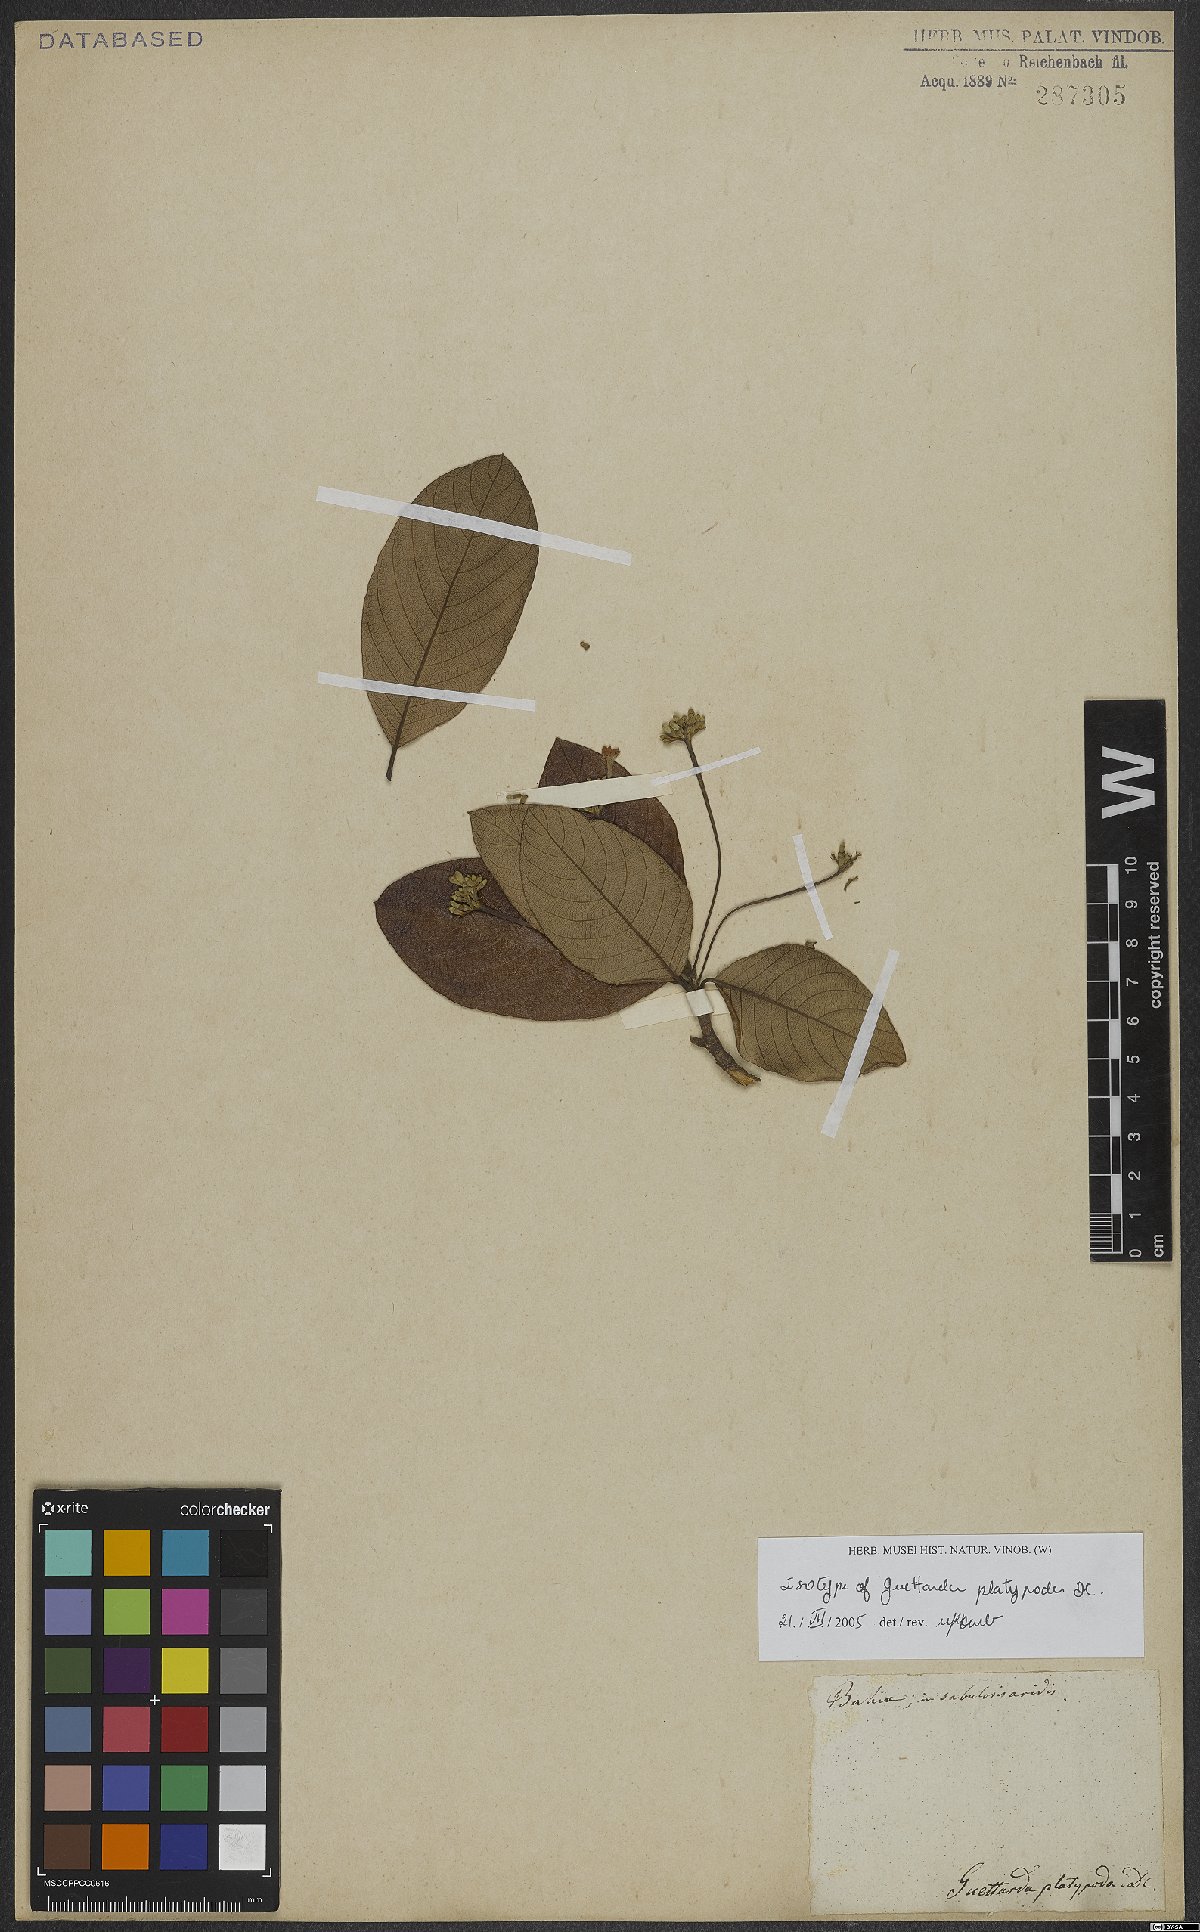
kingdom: Plantae
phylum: Tracheophyta
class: Magnoliopsida
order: Gentianales
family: Rubiaceae
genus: Guettarda
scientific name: Guettarda platypoda
